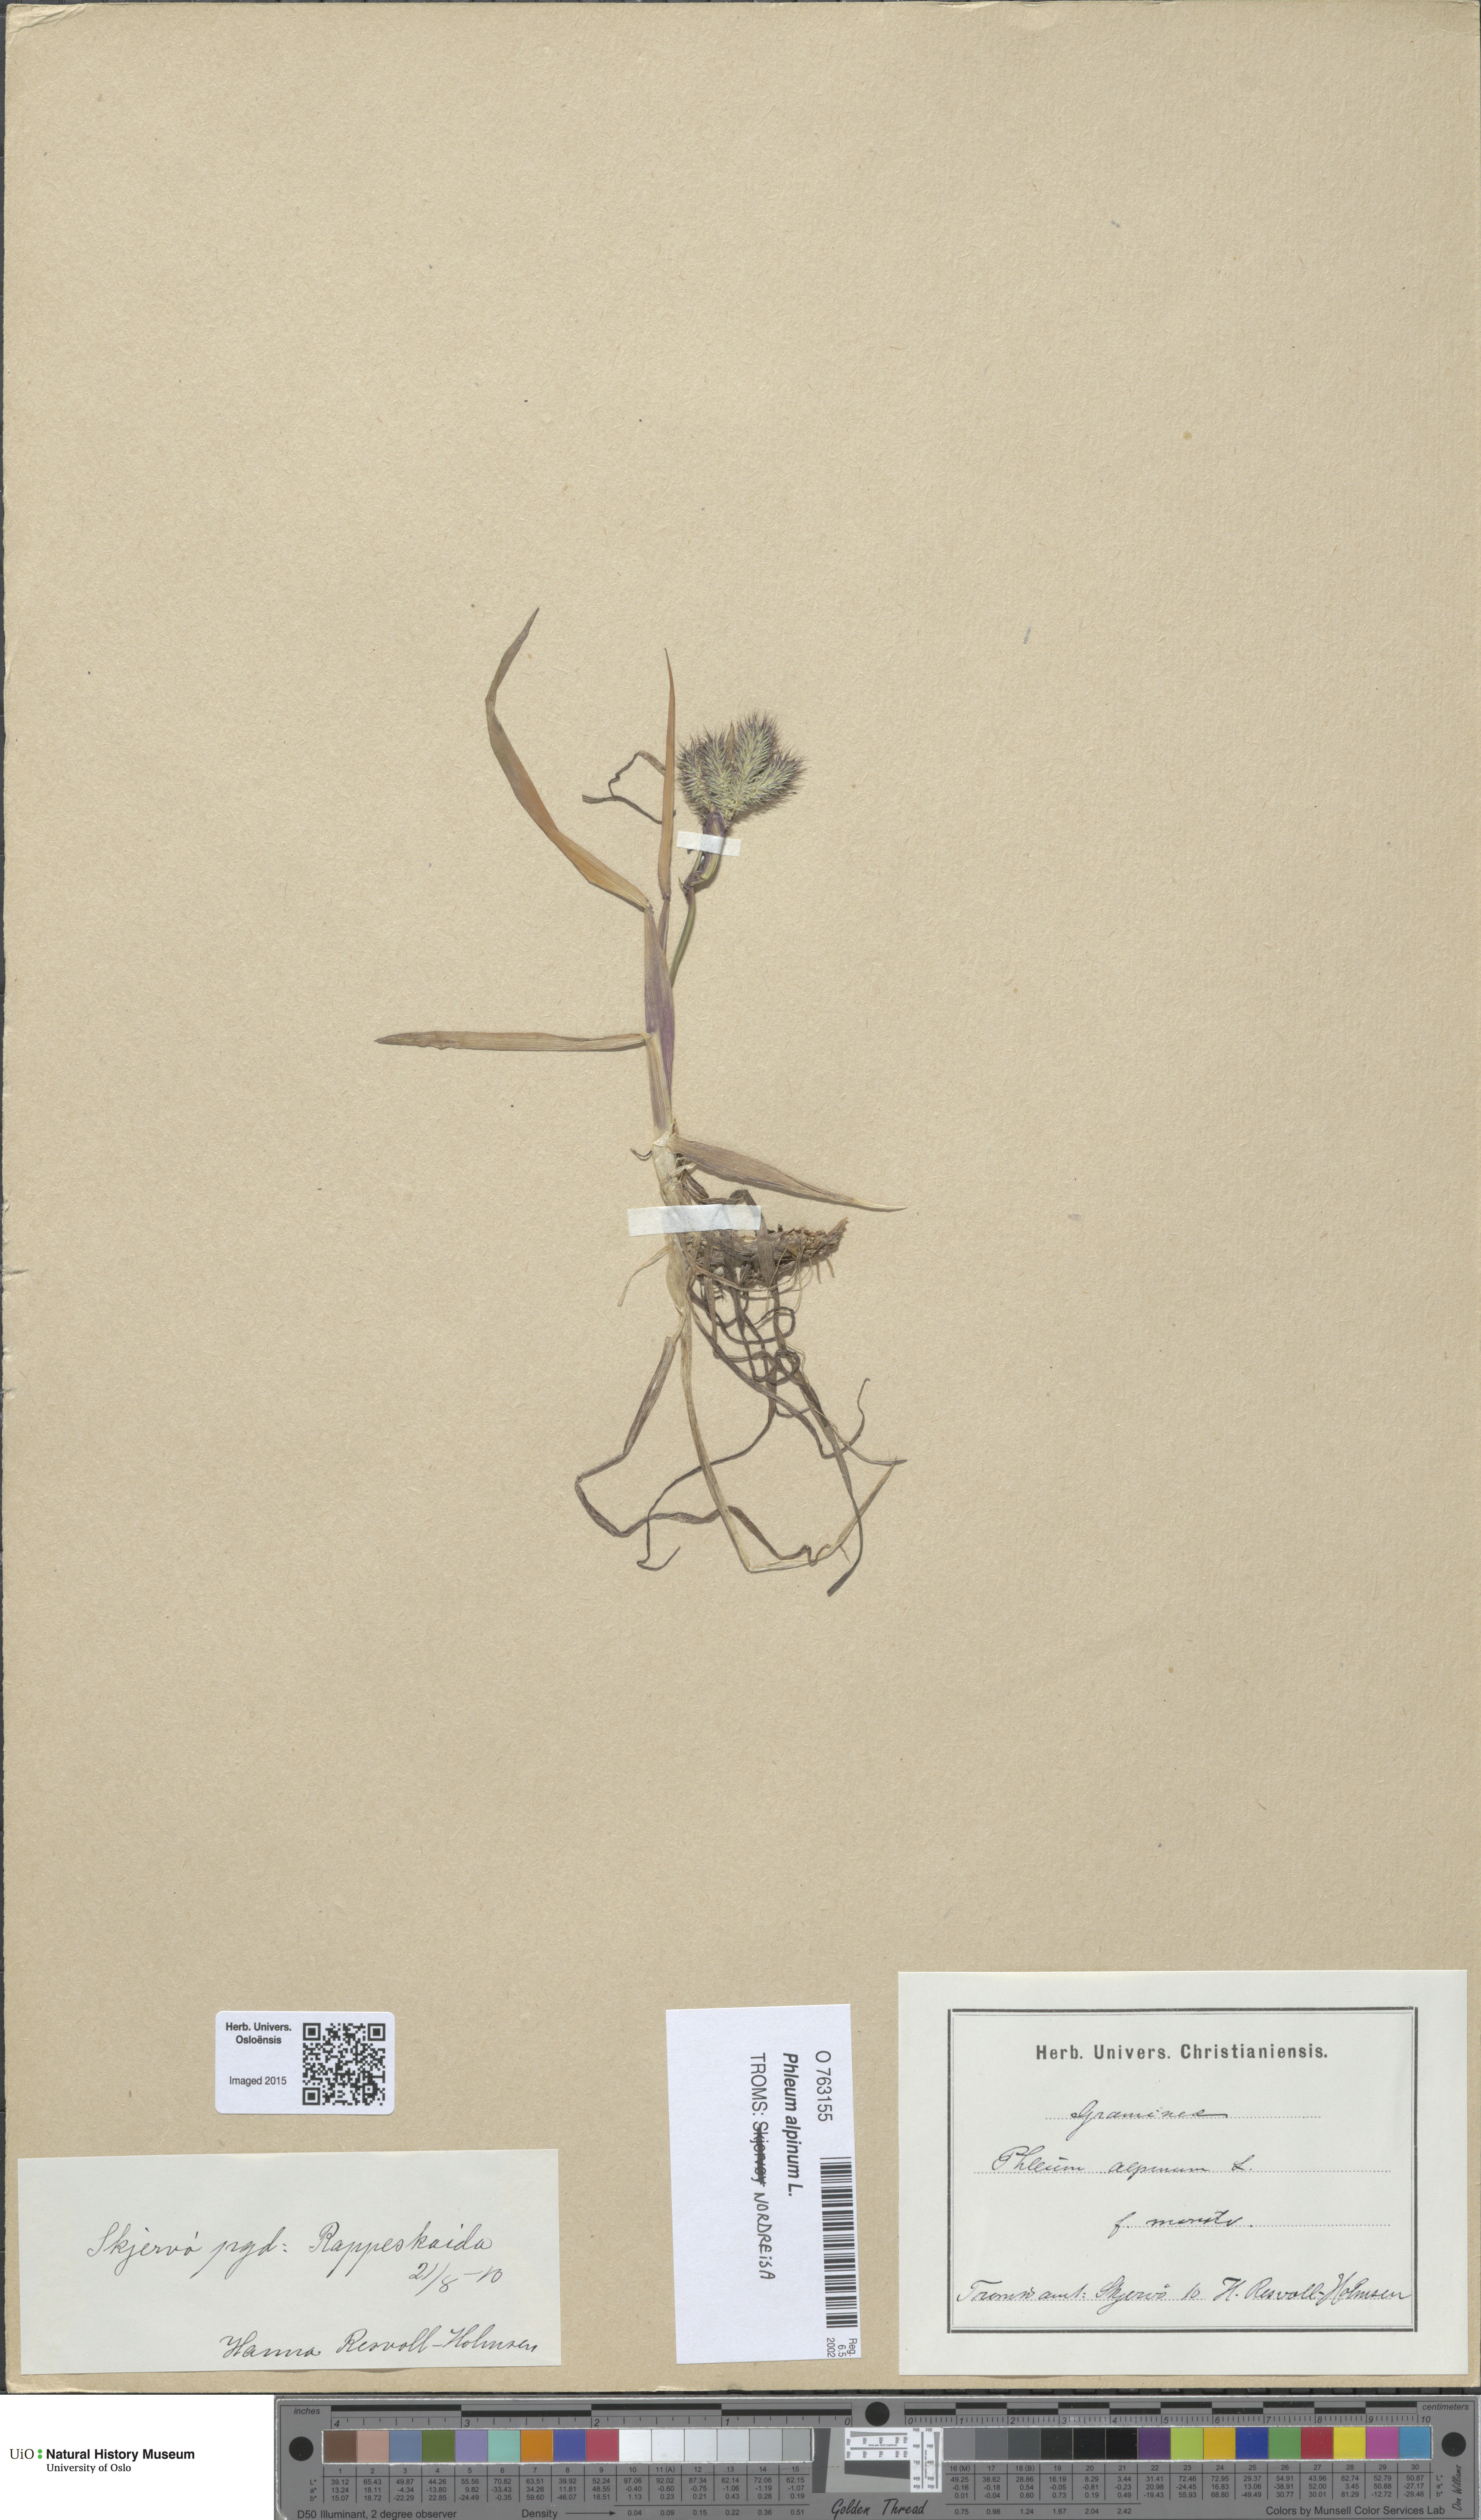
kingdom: Plantae
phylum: Tracheophyta
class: Liliopsida
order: Poales
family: Poaceae
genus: Phleum
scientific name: Phleum alpinum
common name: Alpine cat's-tail
